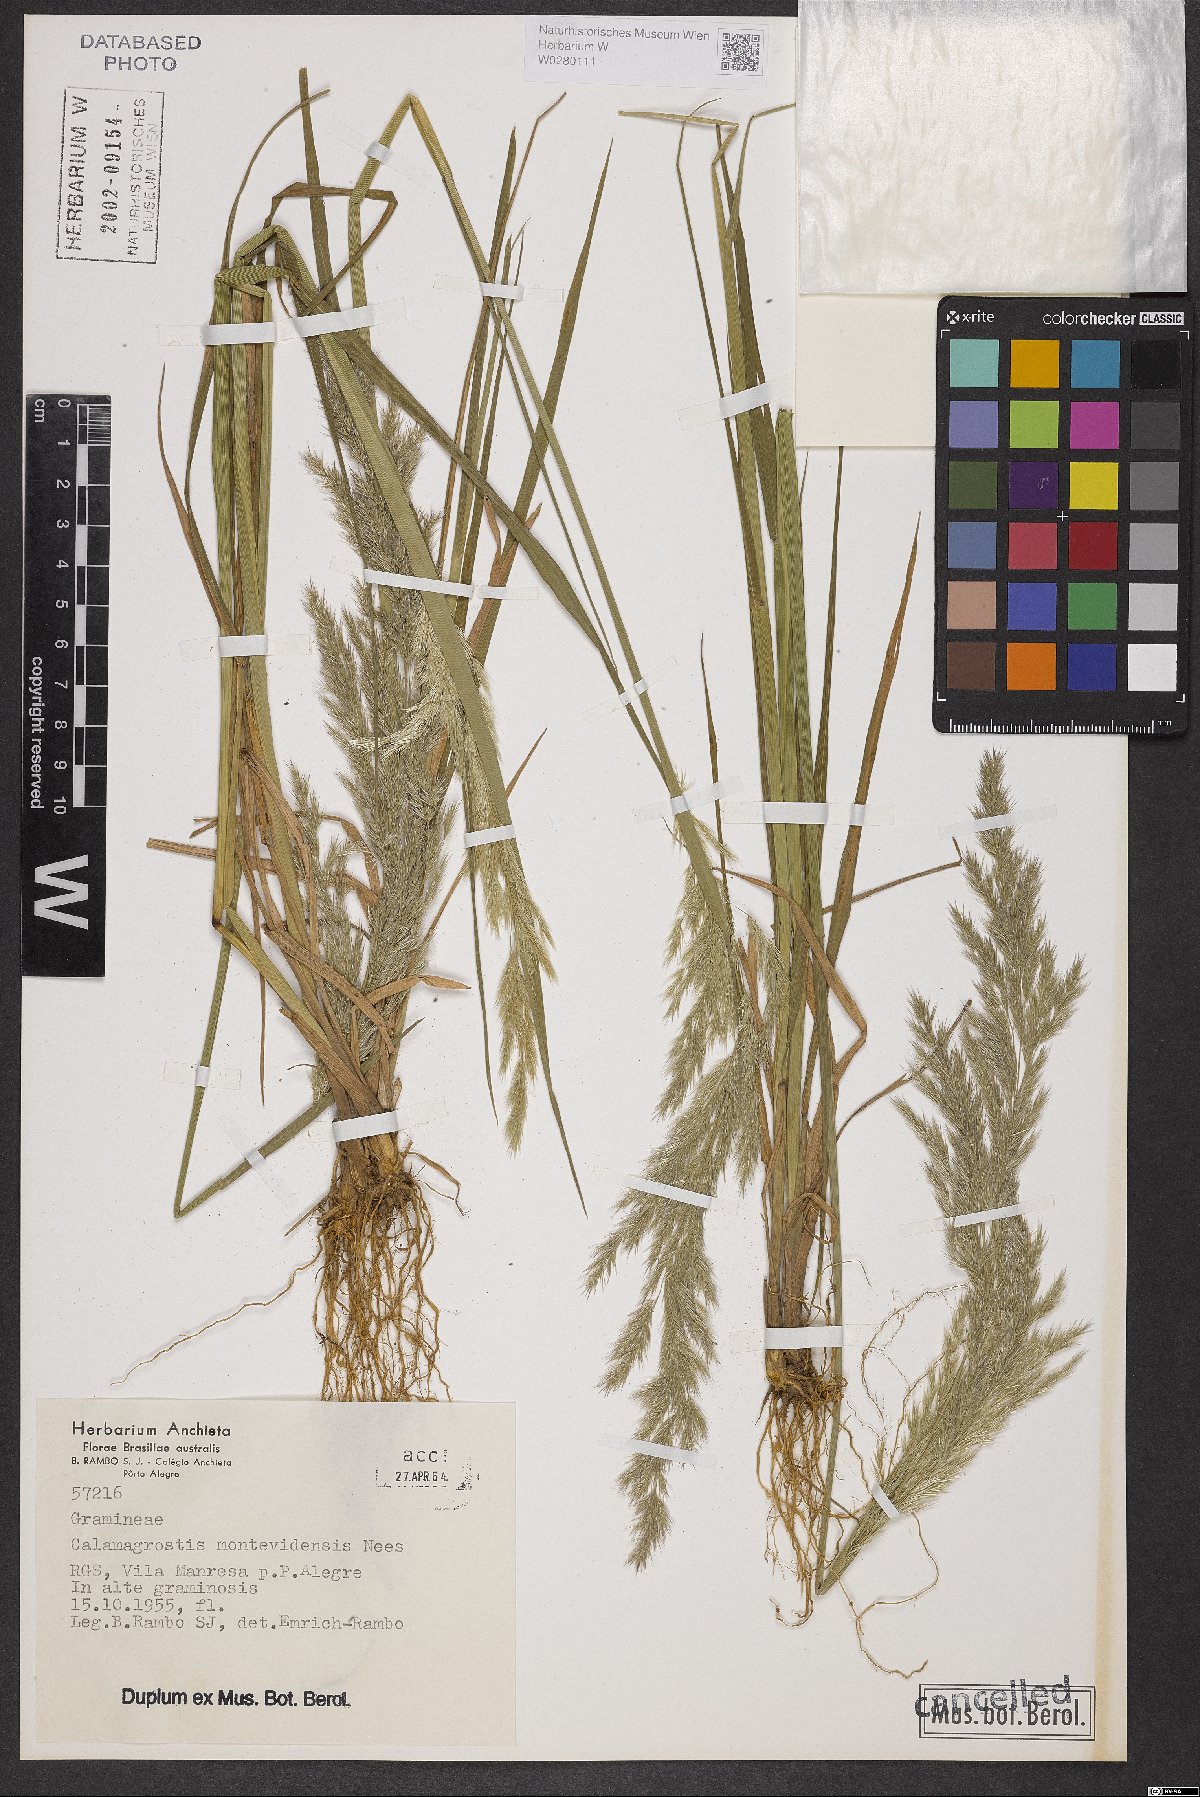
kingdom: Plantae
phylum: Tracheophyta
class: Liliopsida
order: Poales
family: Poaceae
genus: Cinnagrostis
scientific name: Cinnagrostis viridiflavescens
